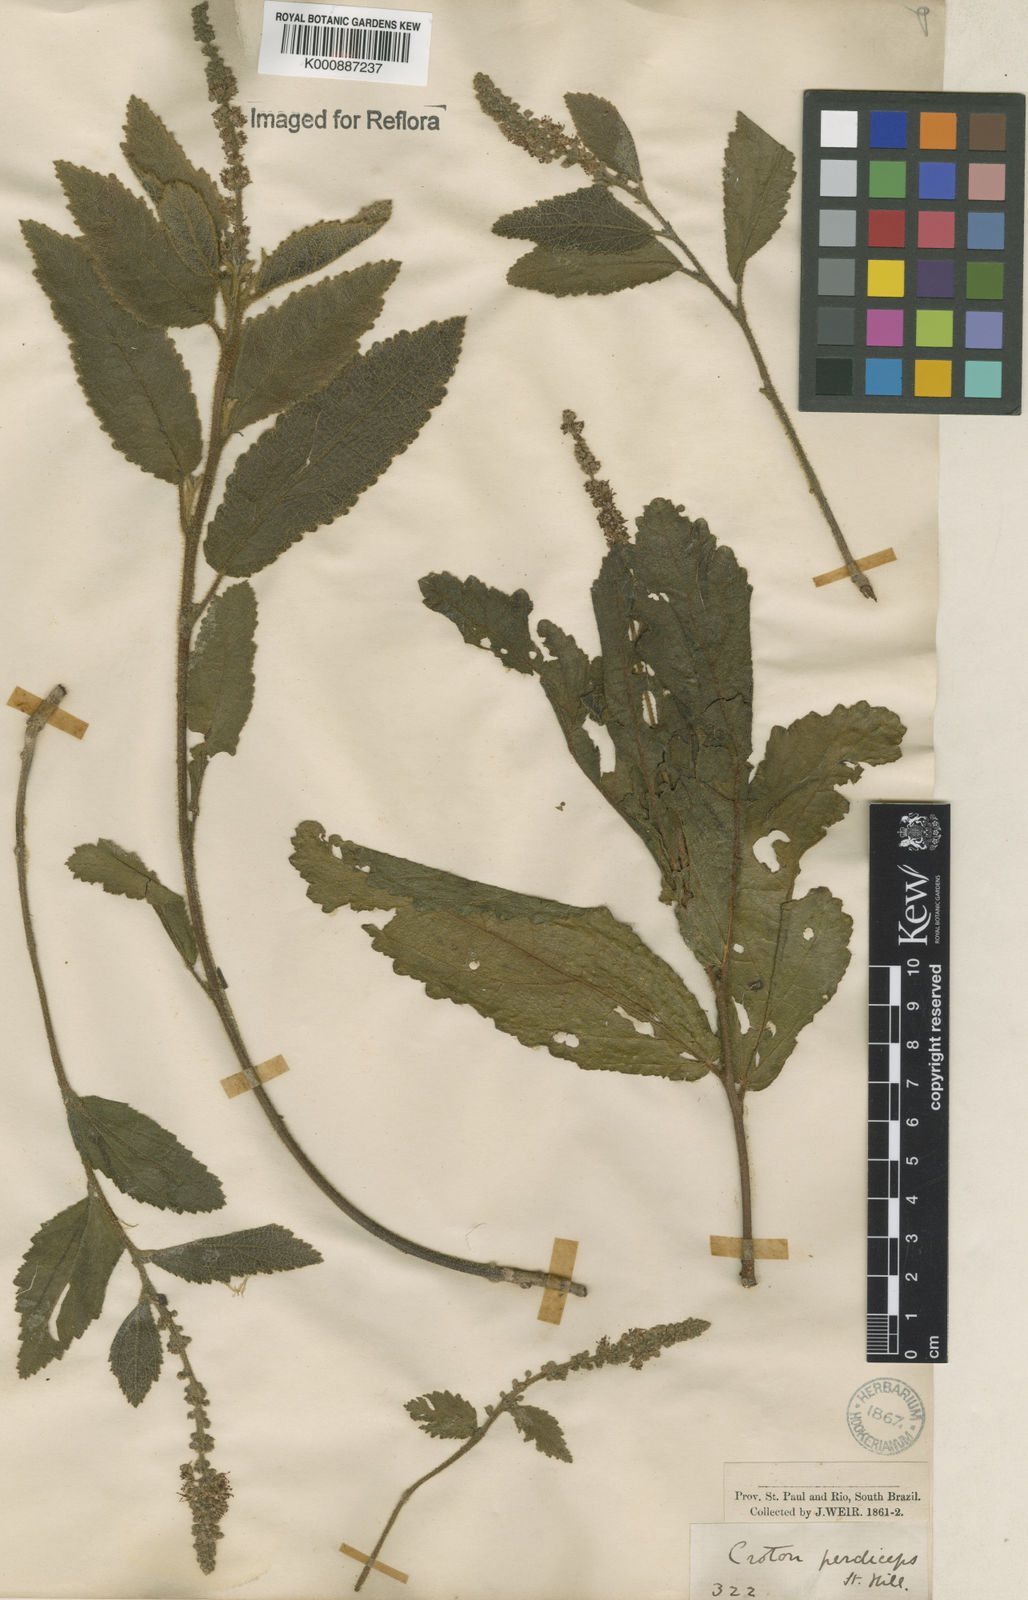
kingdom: Plantae
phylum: Tracheophyta
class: Magnoliopsida
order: Malpighiales
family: Euphorbiaceae
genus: Croton
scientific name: Croton antisyphiliticus
